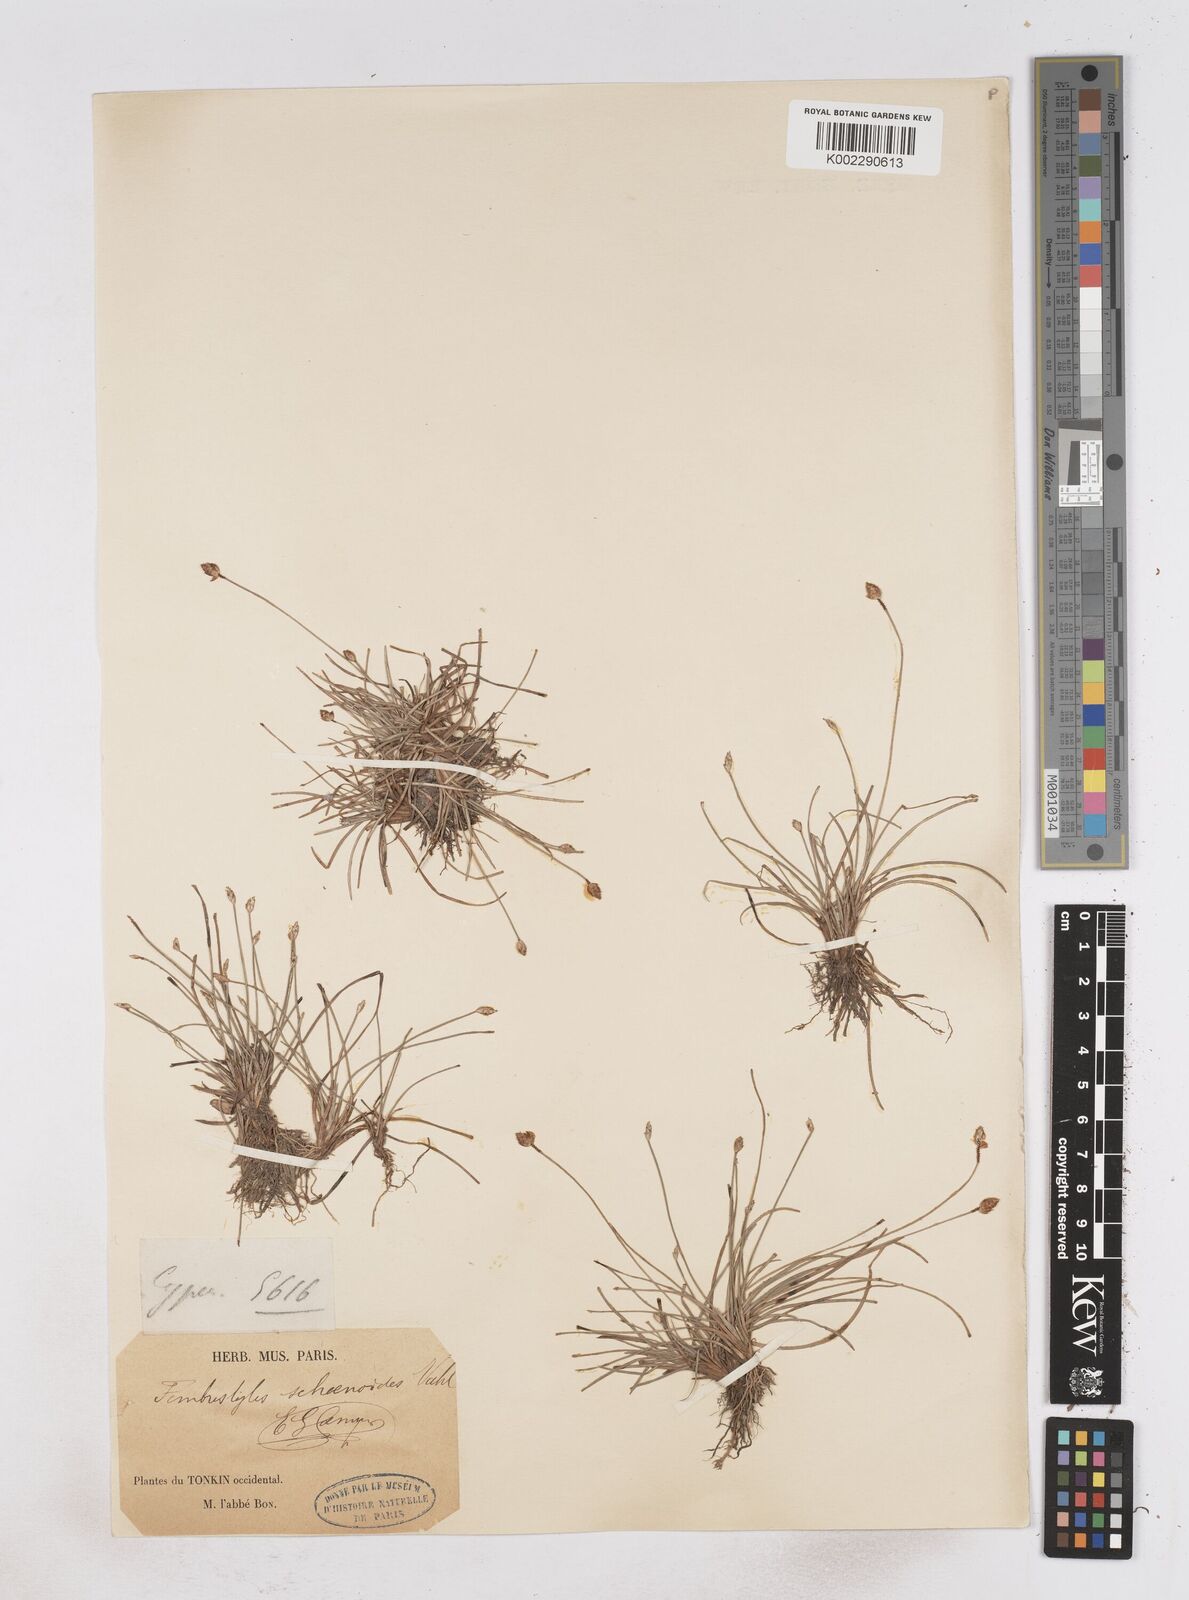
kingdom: Plantae
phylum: Tracheophyta
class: Liliopsida
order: Poales
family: Cyperaceae
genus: Fimbristylis
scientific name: Fimbristylis schoenoides
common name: Ditch fimbry
